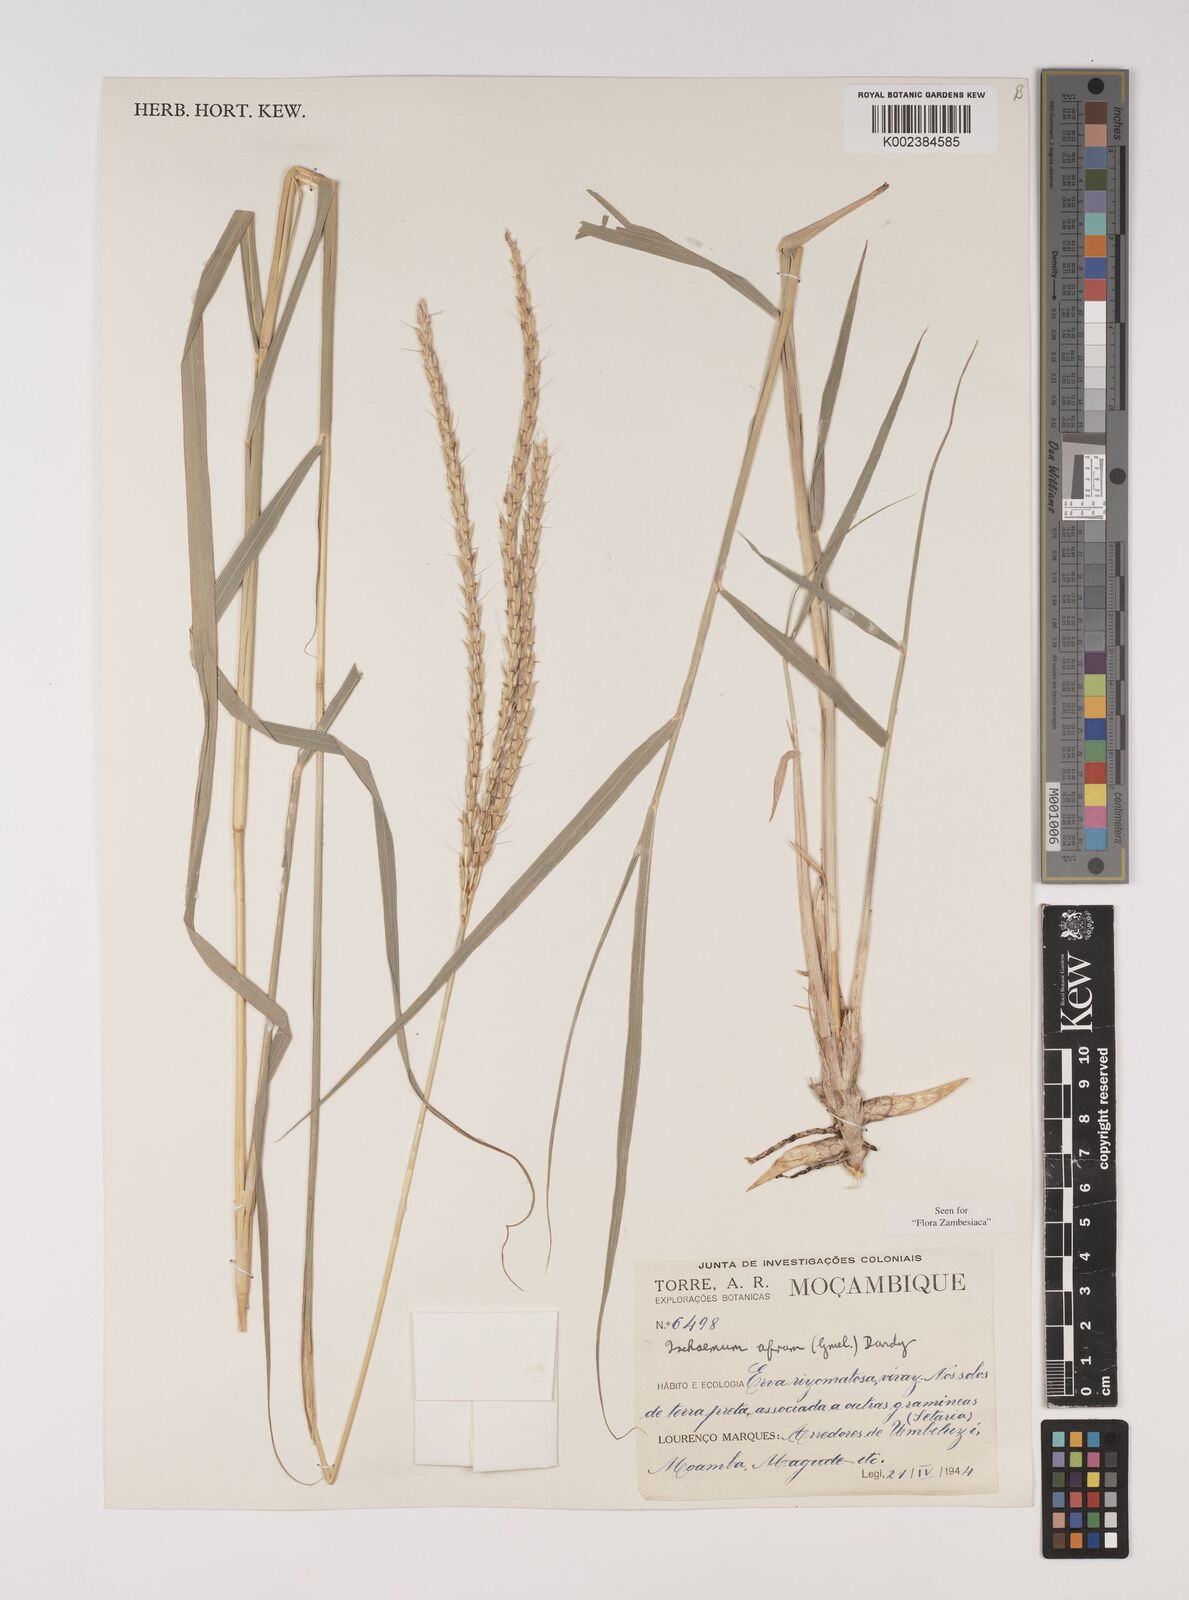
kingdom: Plantae
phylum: Tracheophyta
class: Liliopsida
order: Poales
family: Poaceae
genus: Ischaemum
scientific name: Ischaemum afrum
